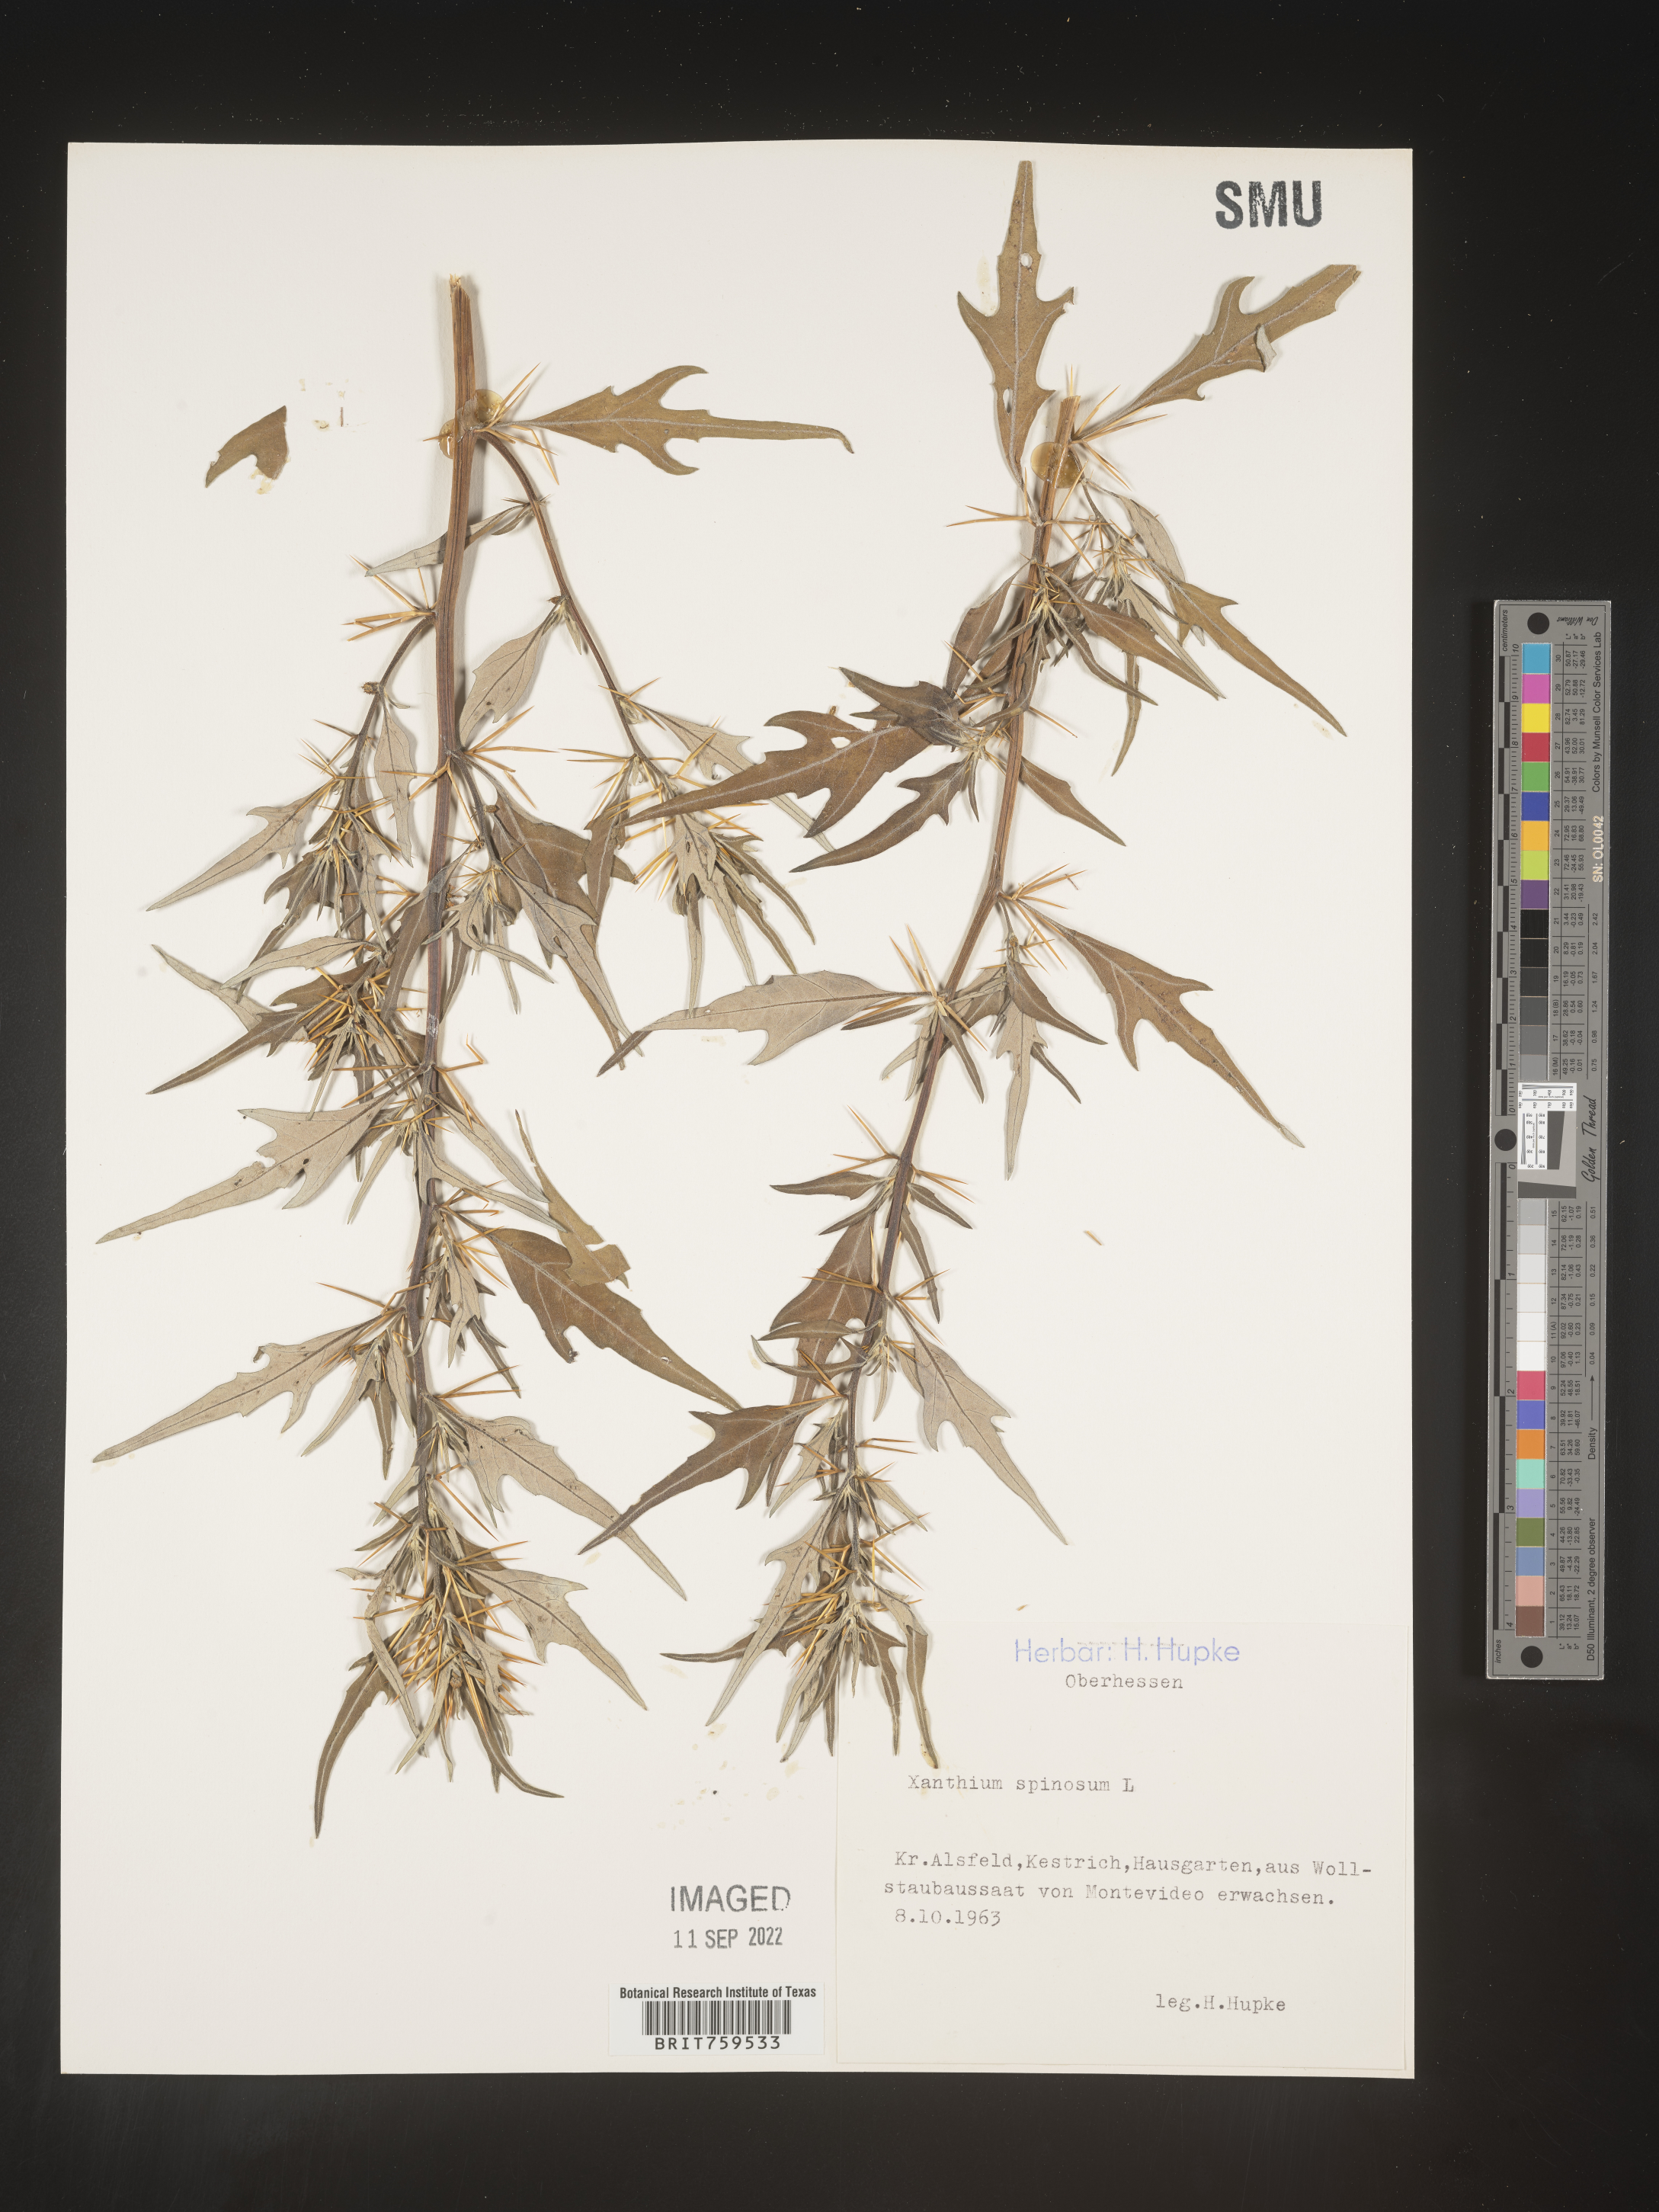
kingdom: Plantae
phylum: Tracheophyta
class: Magnoliopsida
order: Asterales
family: Asteraceae
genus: Xanthium
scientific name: Xanthium
